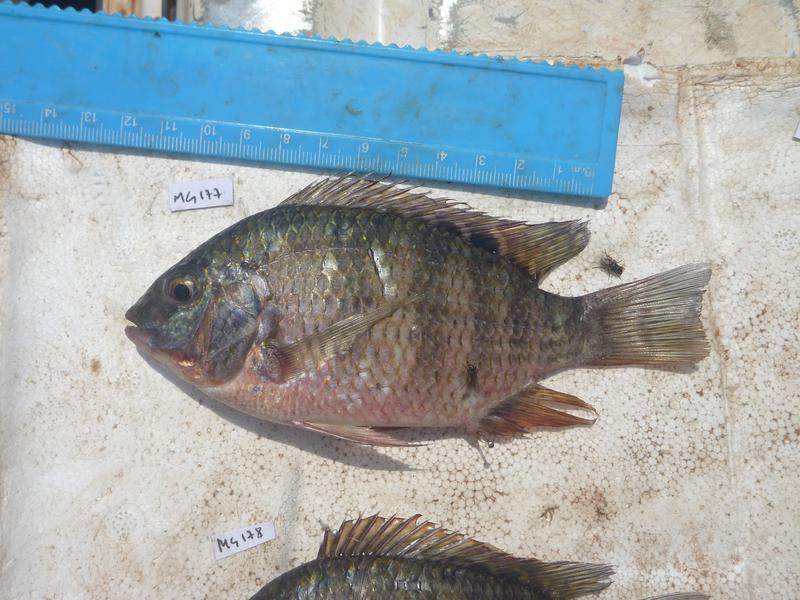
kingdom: Animalia
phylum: Chordata
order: Perciformes
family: Cichlidae
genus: Coptodon
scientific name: Coptodon rendalli
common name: Redbreast tilapia
